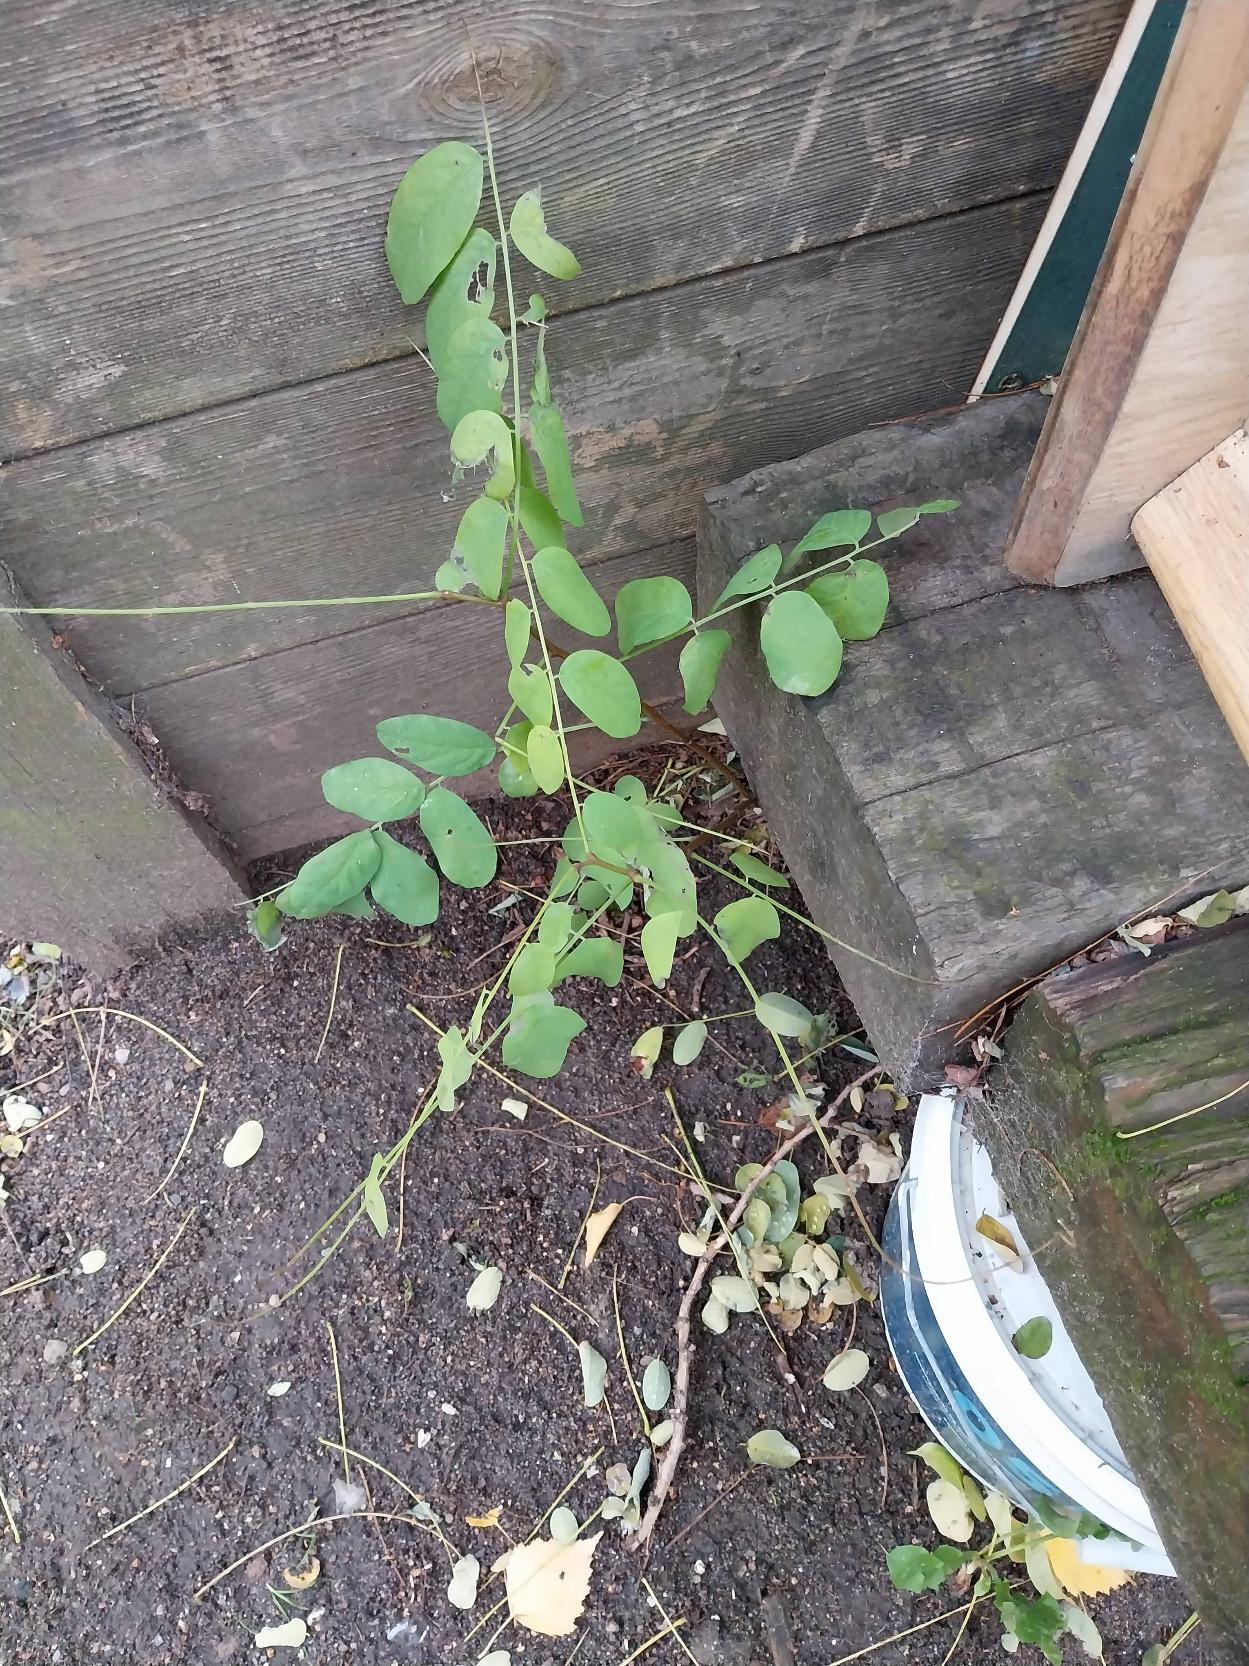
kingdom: Plantae
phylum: Tracheophyta
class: Magnoliopsida
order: Fabales
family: Fabaceae
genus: Robinia
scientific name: Robinia pseudoacacia
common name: Robinie
